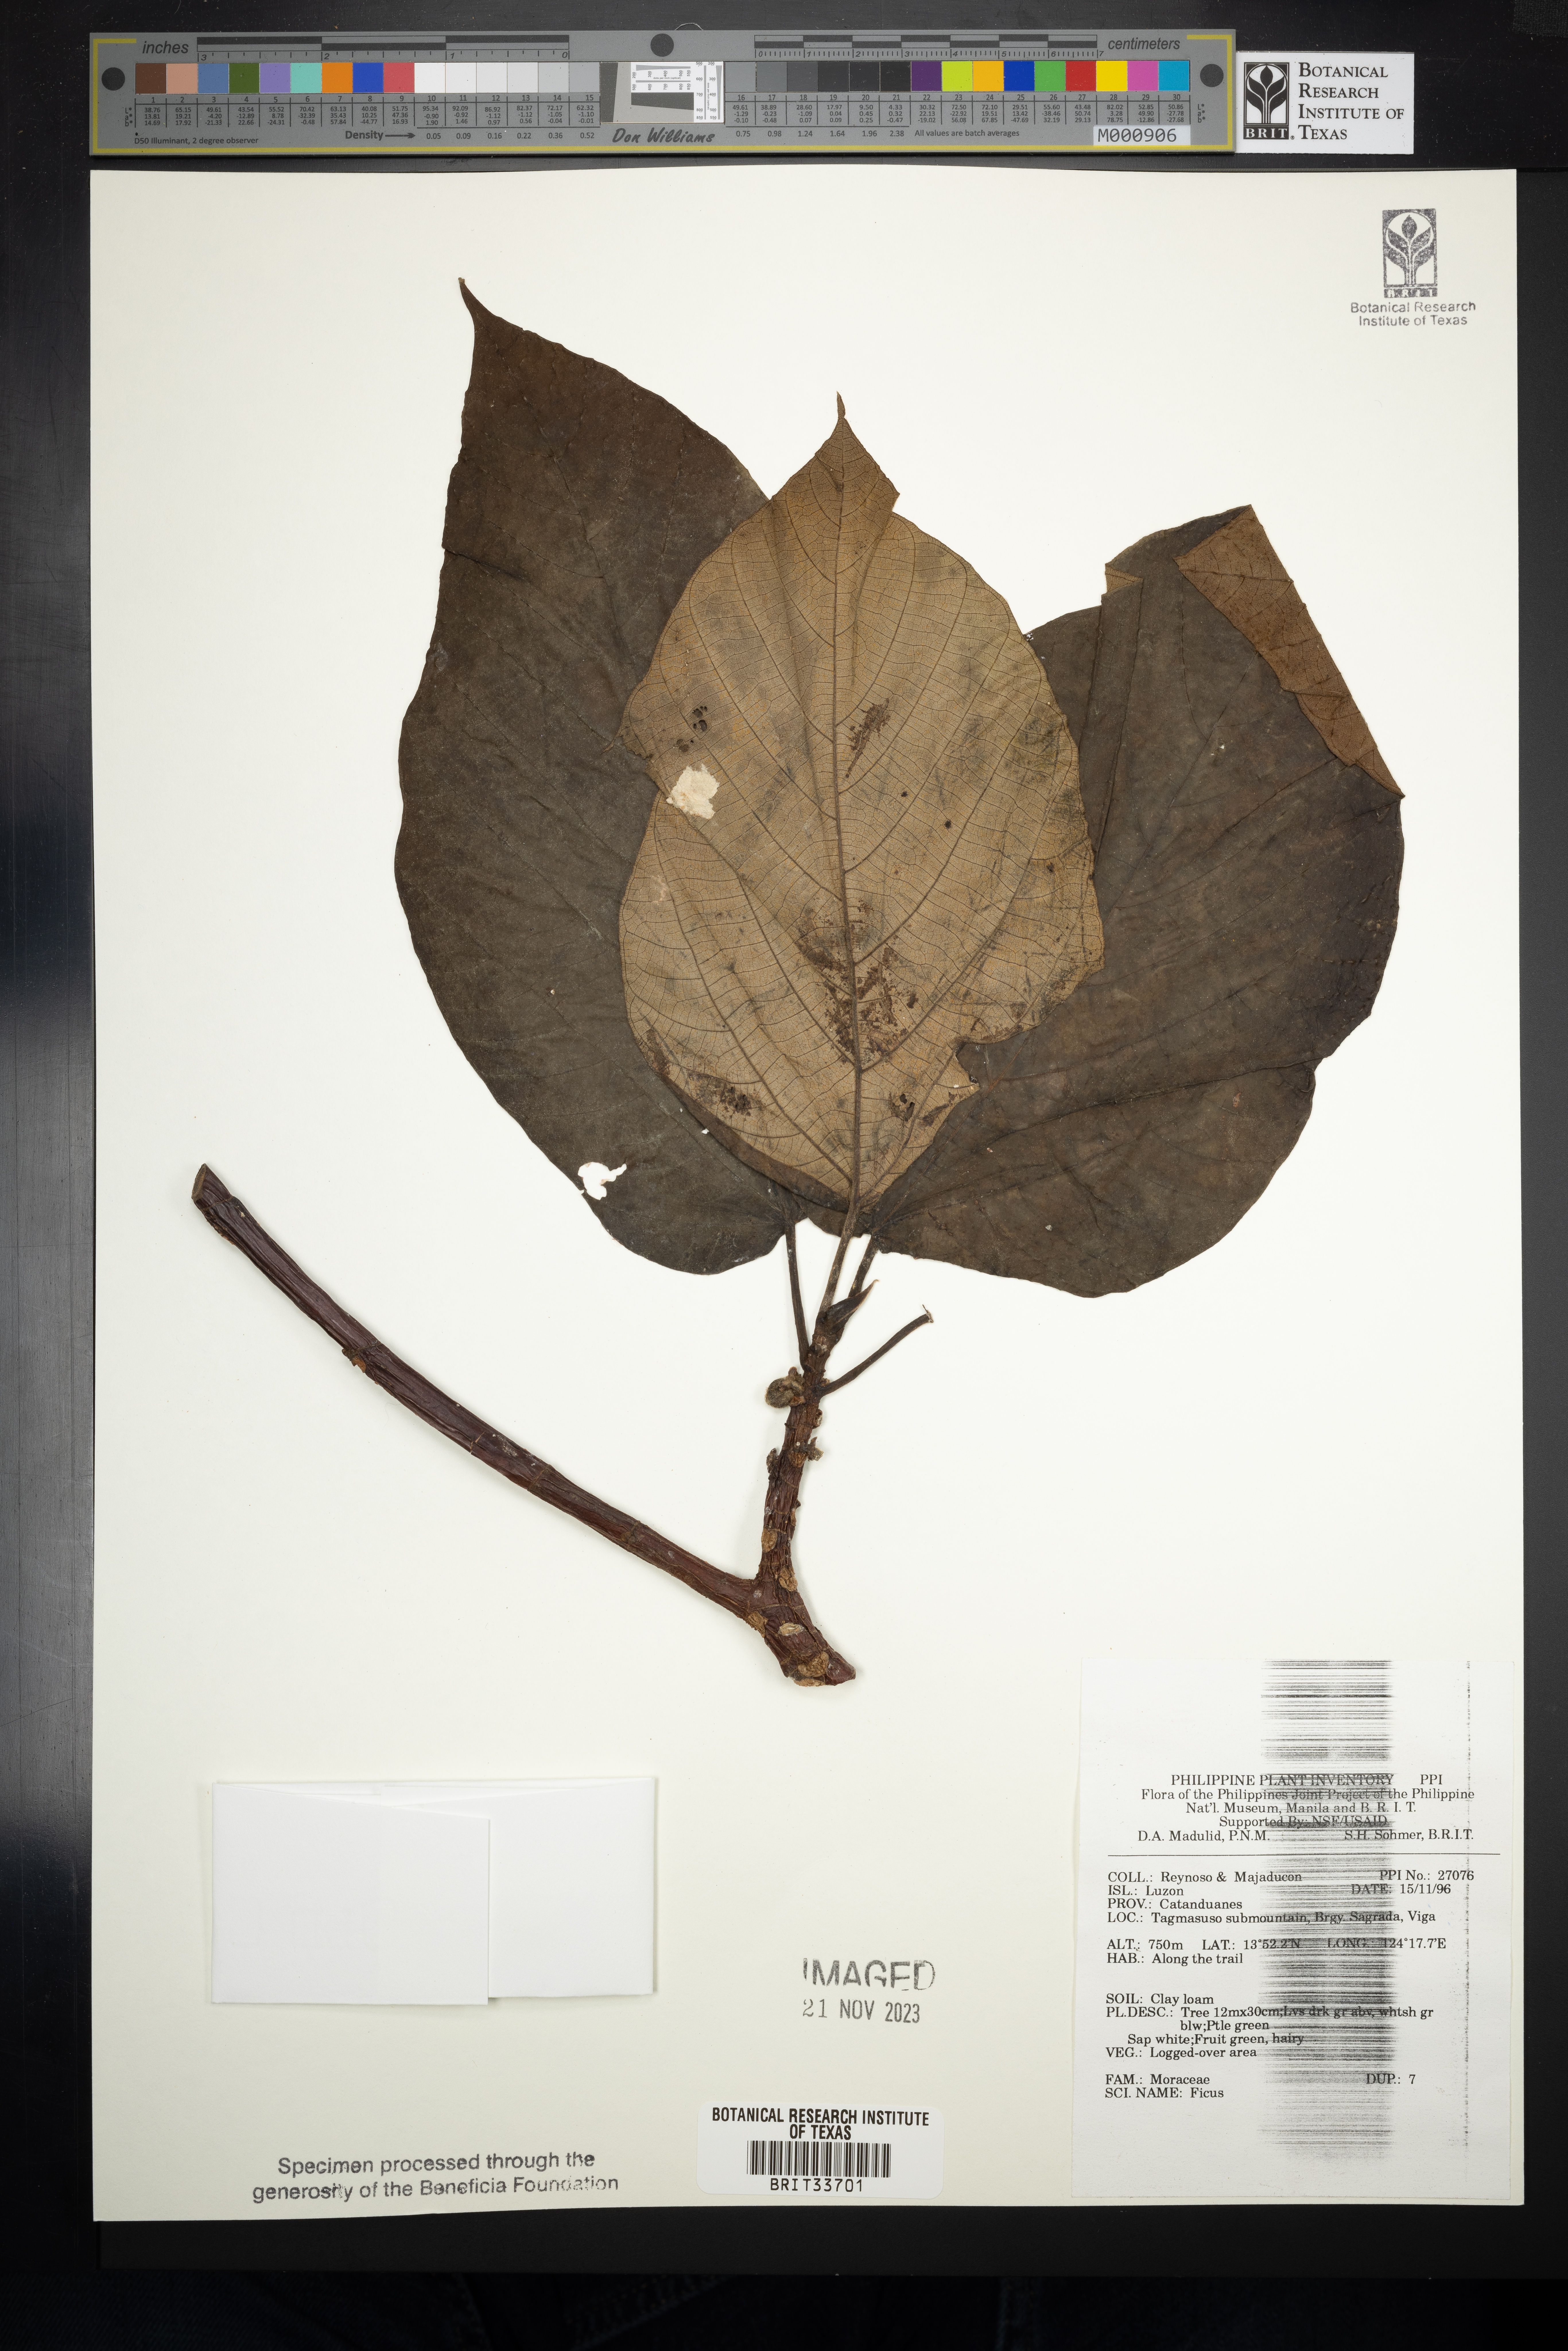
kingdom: Plantae
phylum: Tracheophyta
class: Magnoliopsida
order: Rosales
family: Moraceae
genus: Ficus
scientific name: Ficus
